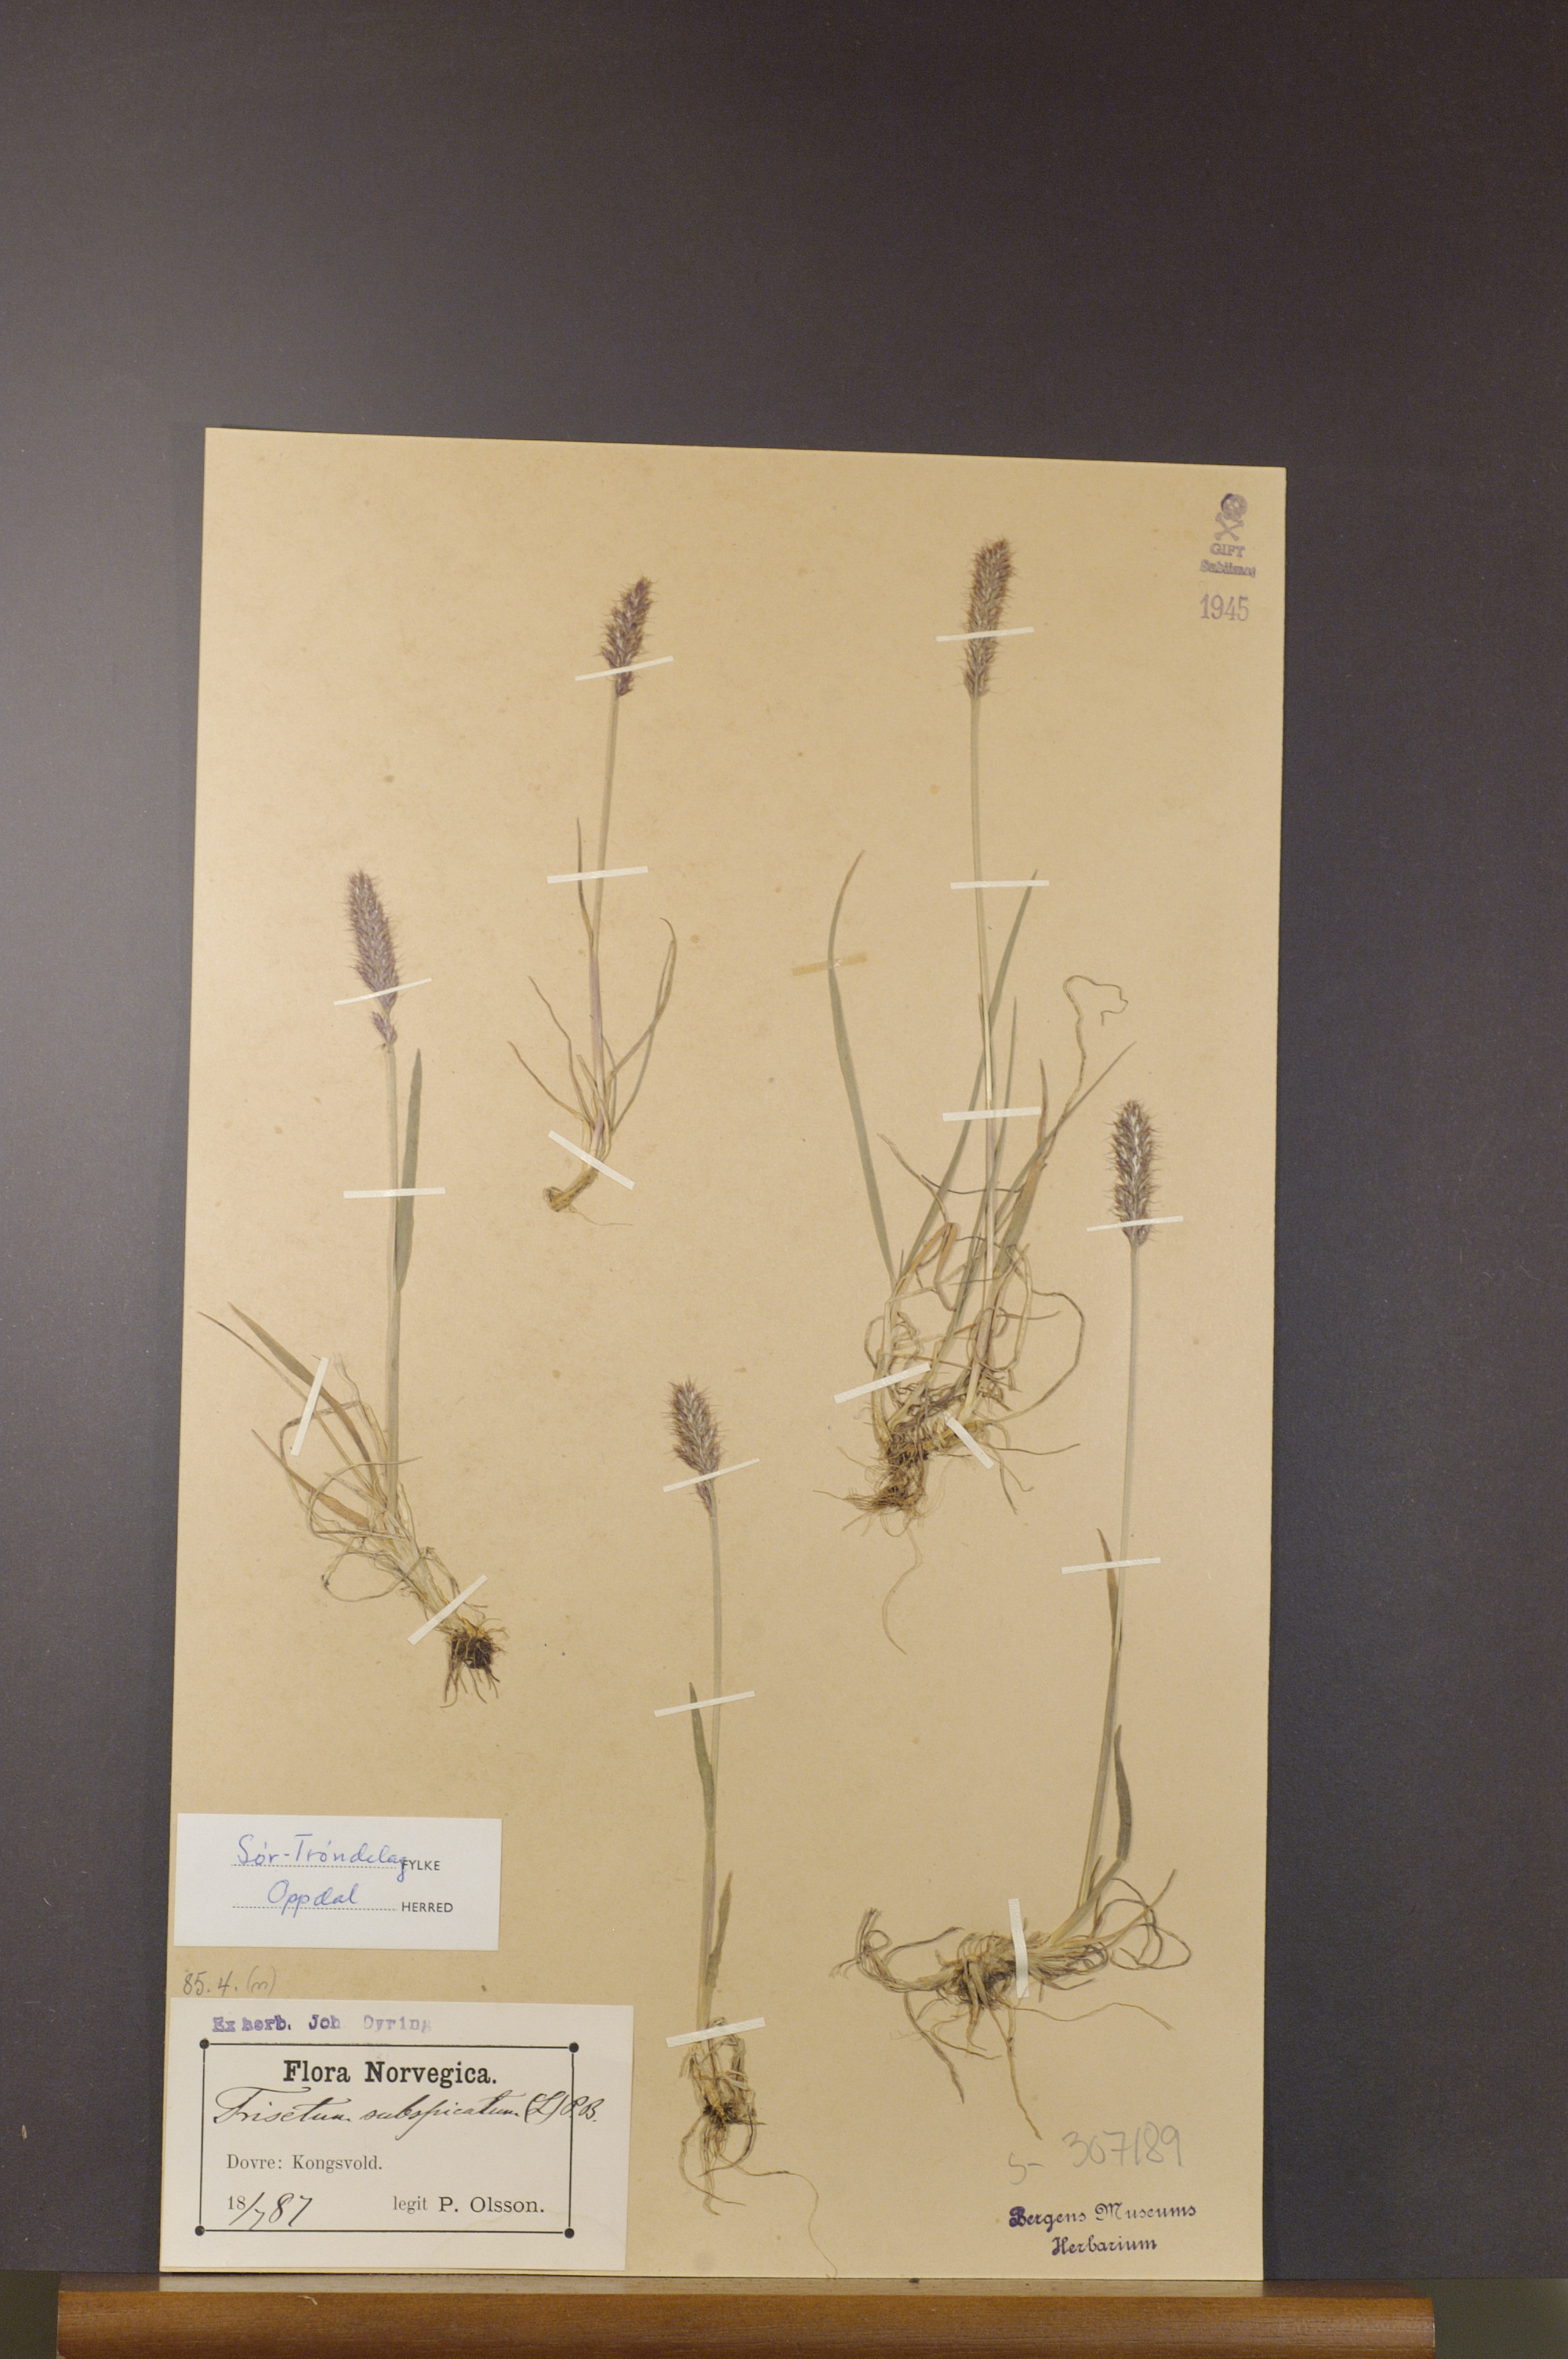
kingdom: Plantae
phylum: Tracheophyta
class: Liliopsida
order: Poales
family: Poaceae
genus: Koeleria
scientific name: Koeleria spicata
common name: Mountain trisetum
